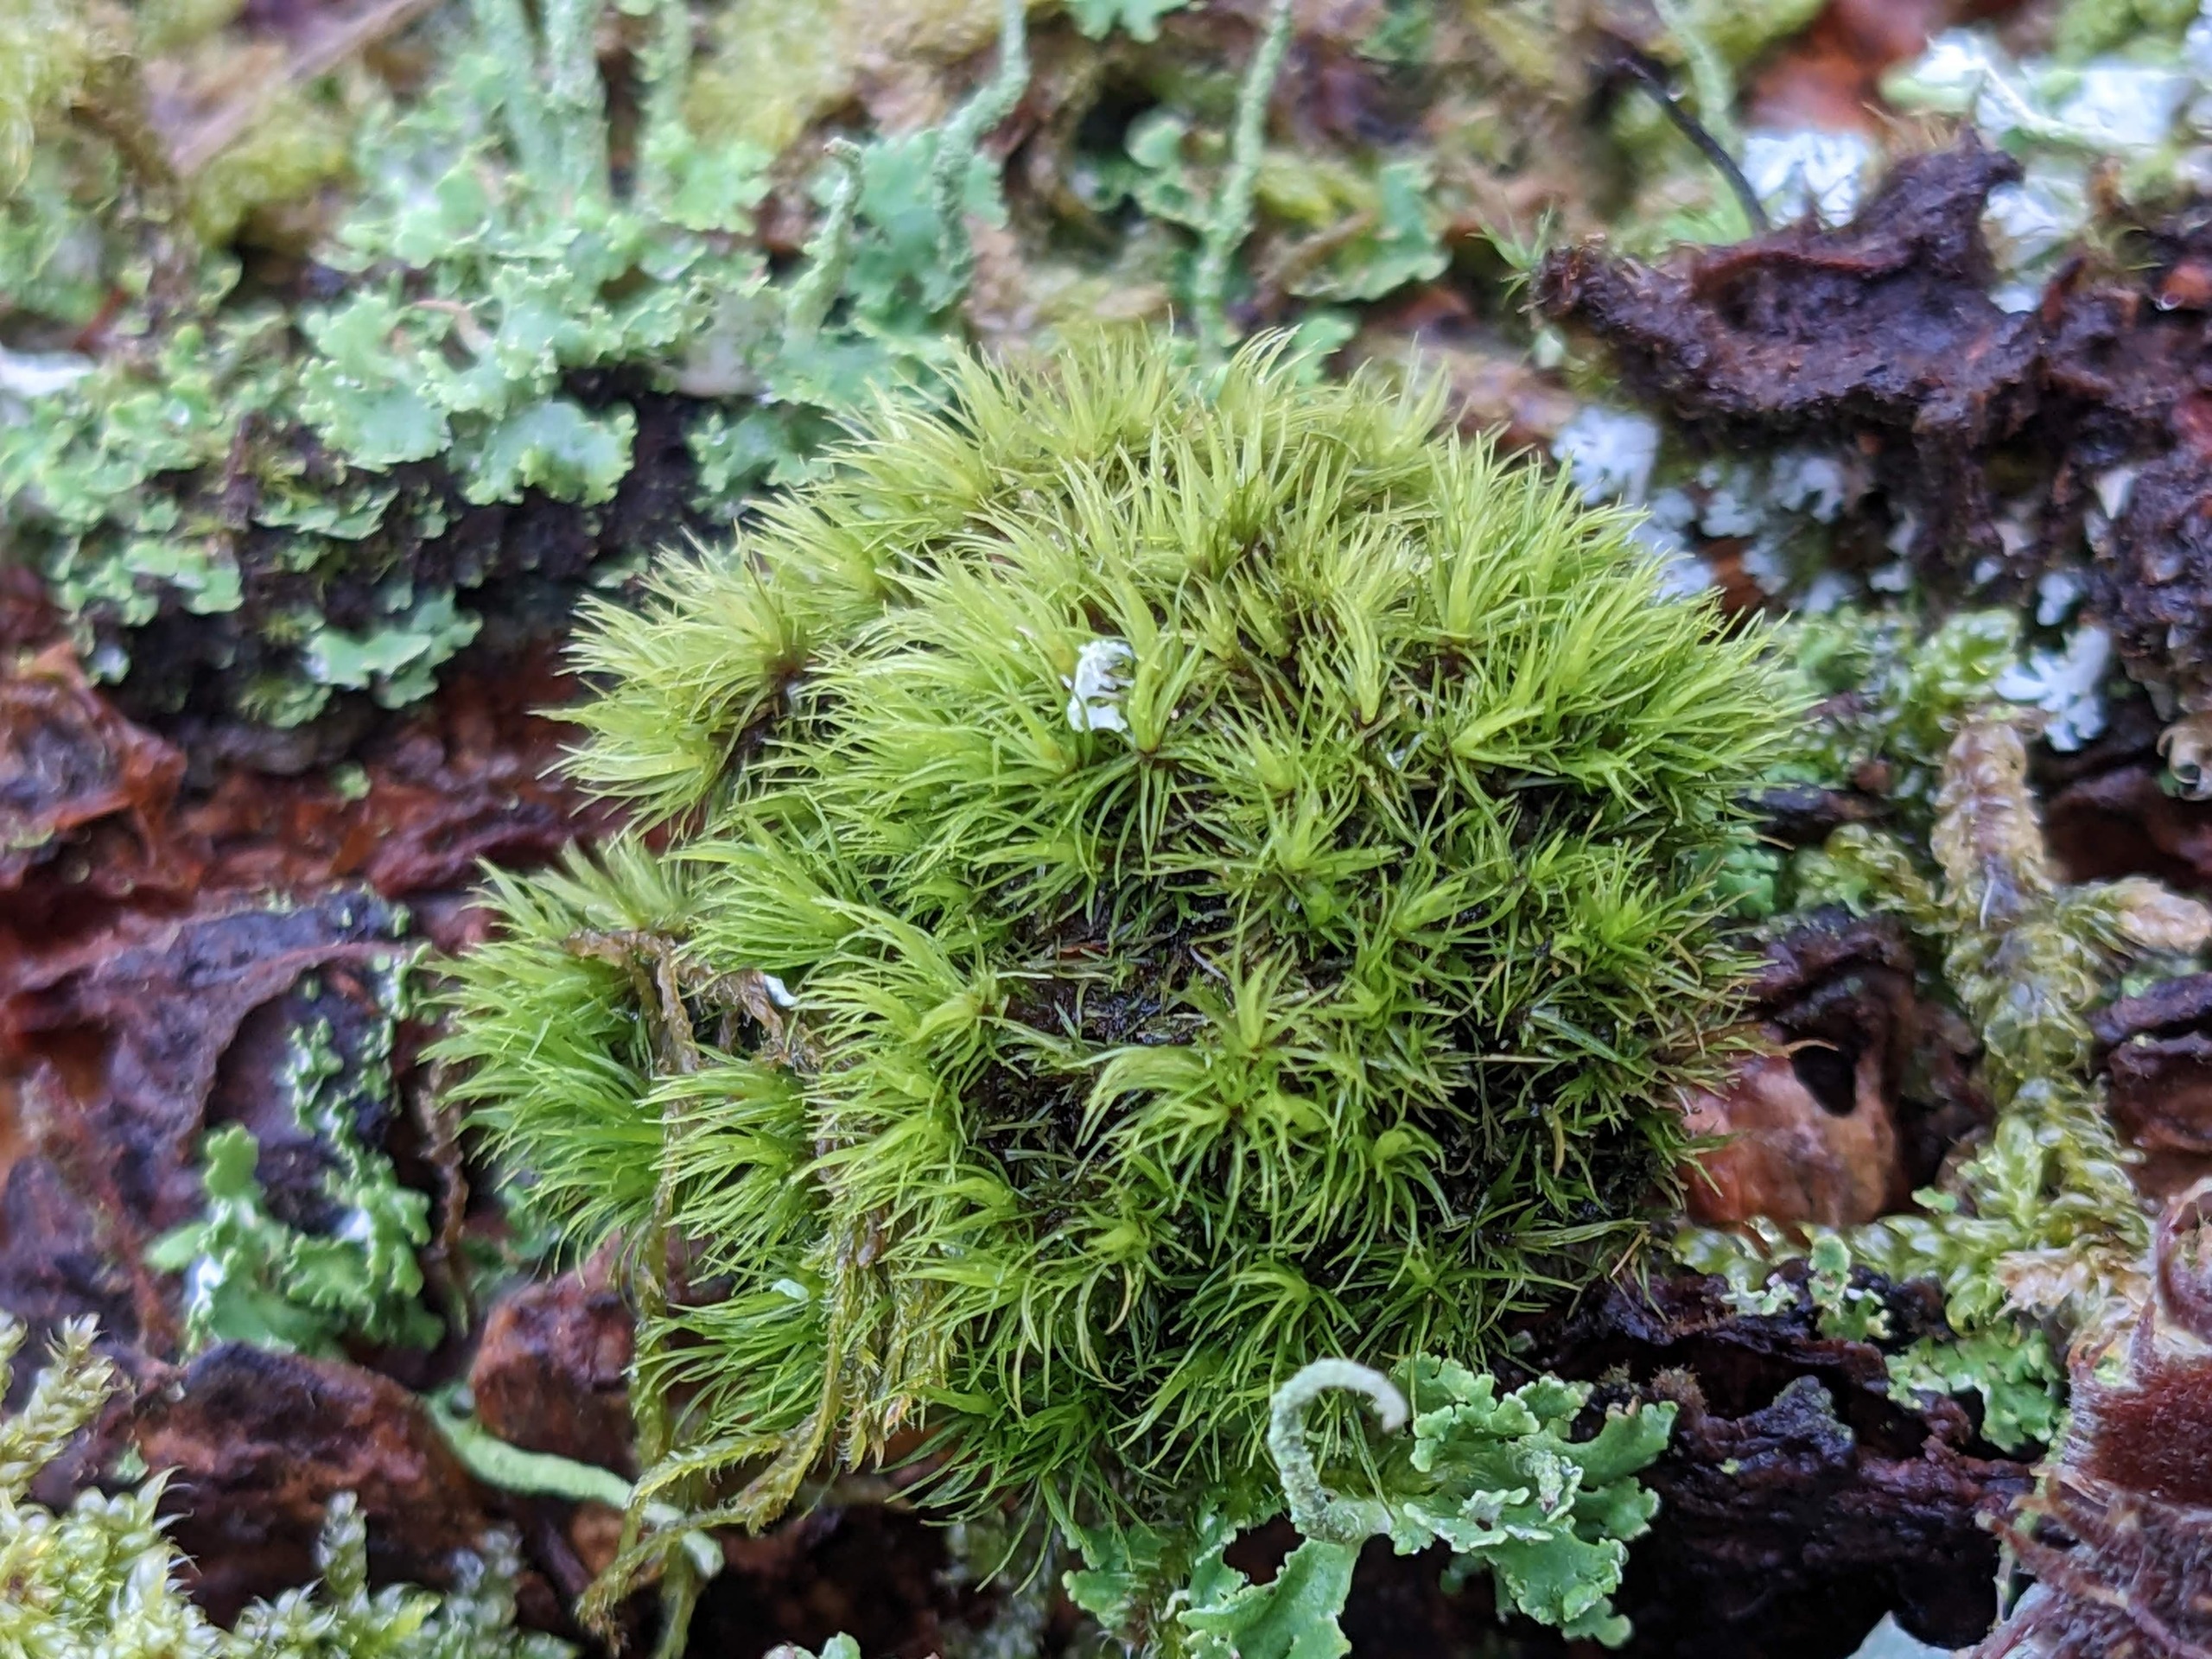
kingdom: Plantae
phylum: Bryophyta
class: Bryopsida
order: Dicranales
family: Dicranaceae
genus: Orthodicranum
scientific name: Orthodicranum montanum
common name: Tæt tyndvinge
